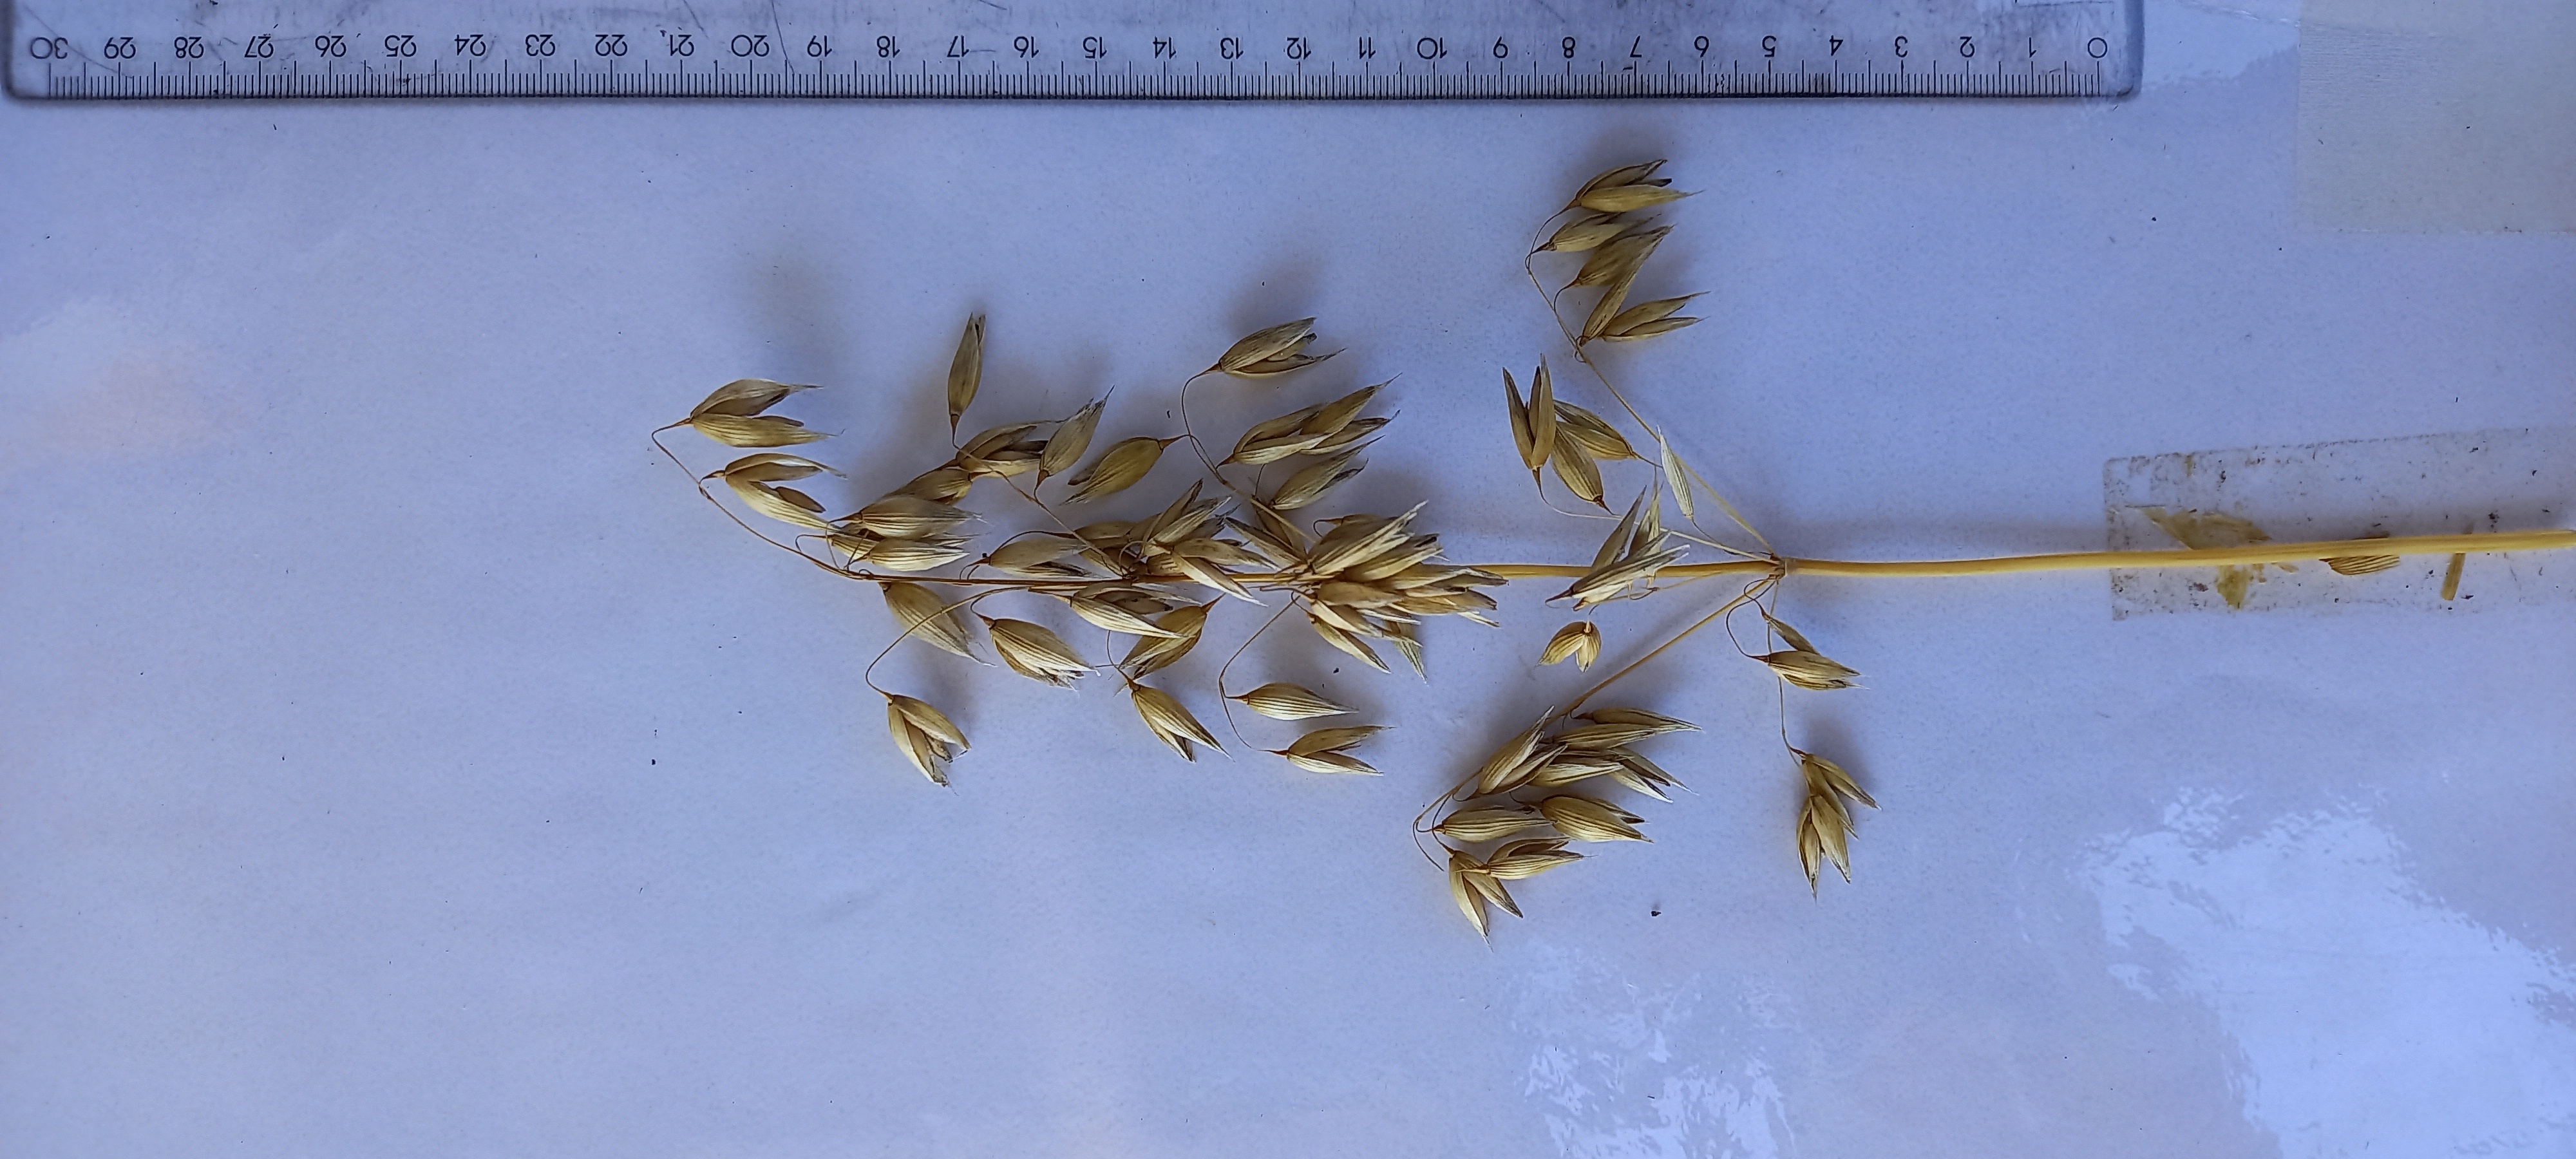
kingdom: Plantae
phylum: Tracheophyta
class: Liliopsida
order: Poales
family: Poaceae
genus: Avena
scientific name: Avena sativa
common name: Oat
